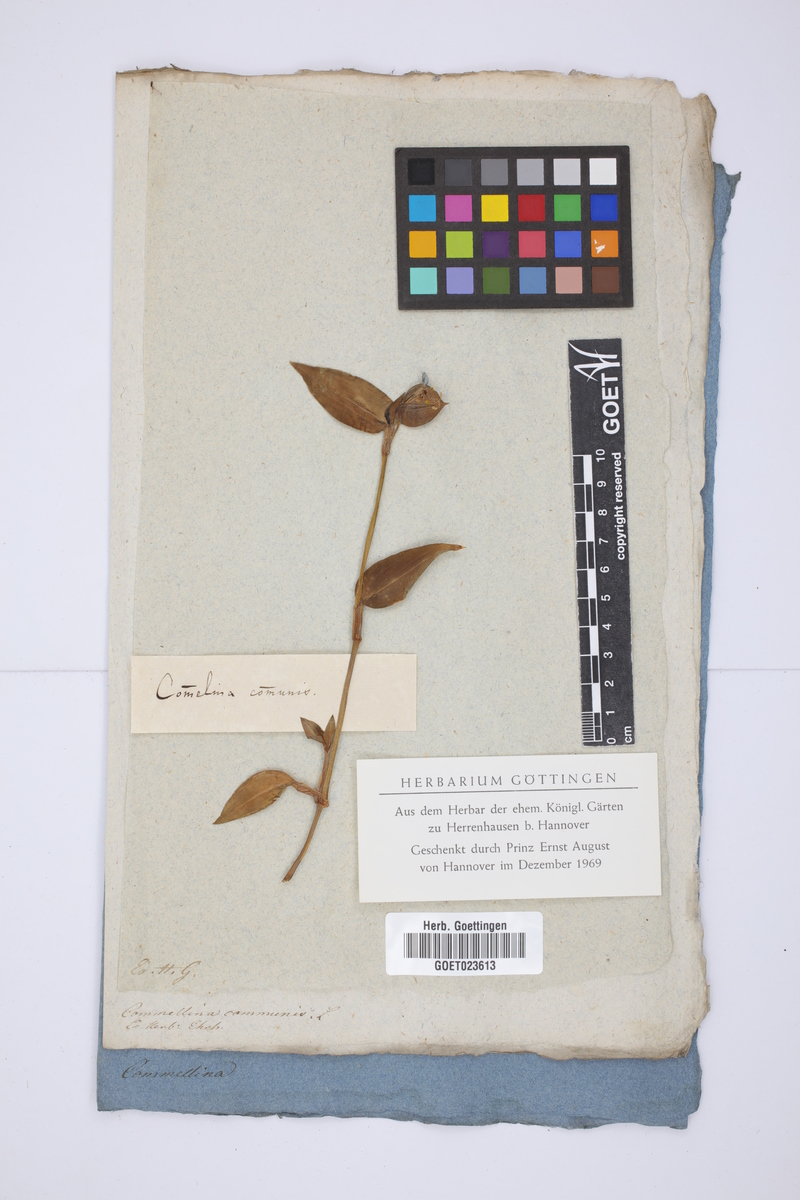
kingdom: Plantae
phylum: Tracheophyta
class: Liliopsida
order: Commelinales
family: Commelinaceae
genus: Commelina
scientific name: Commelina communis
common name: Asiatic dayflower
